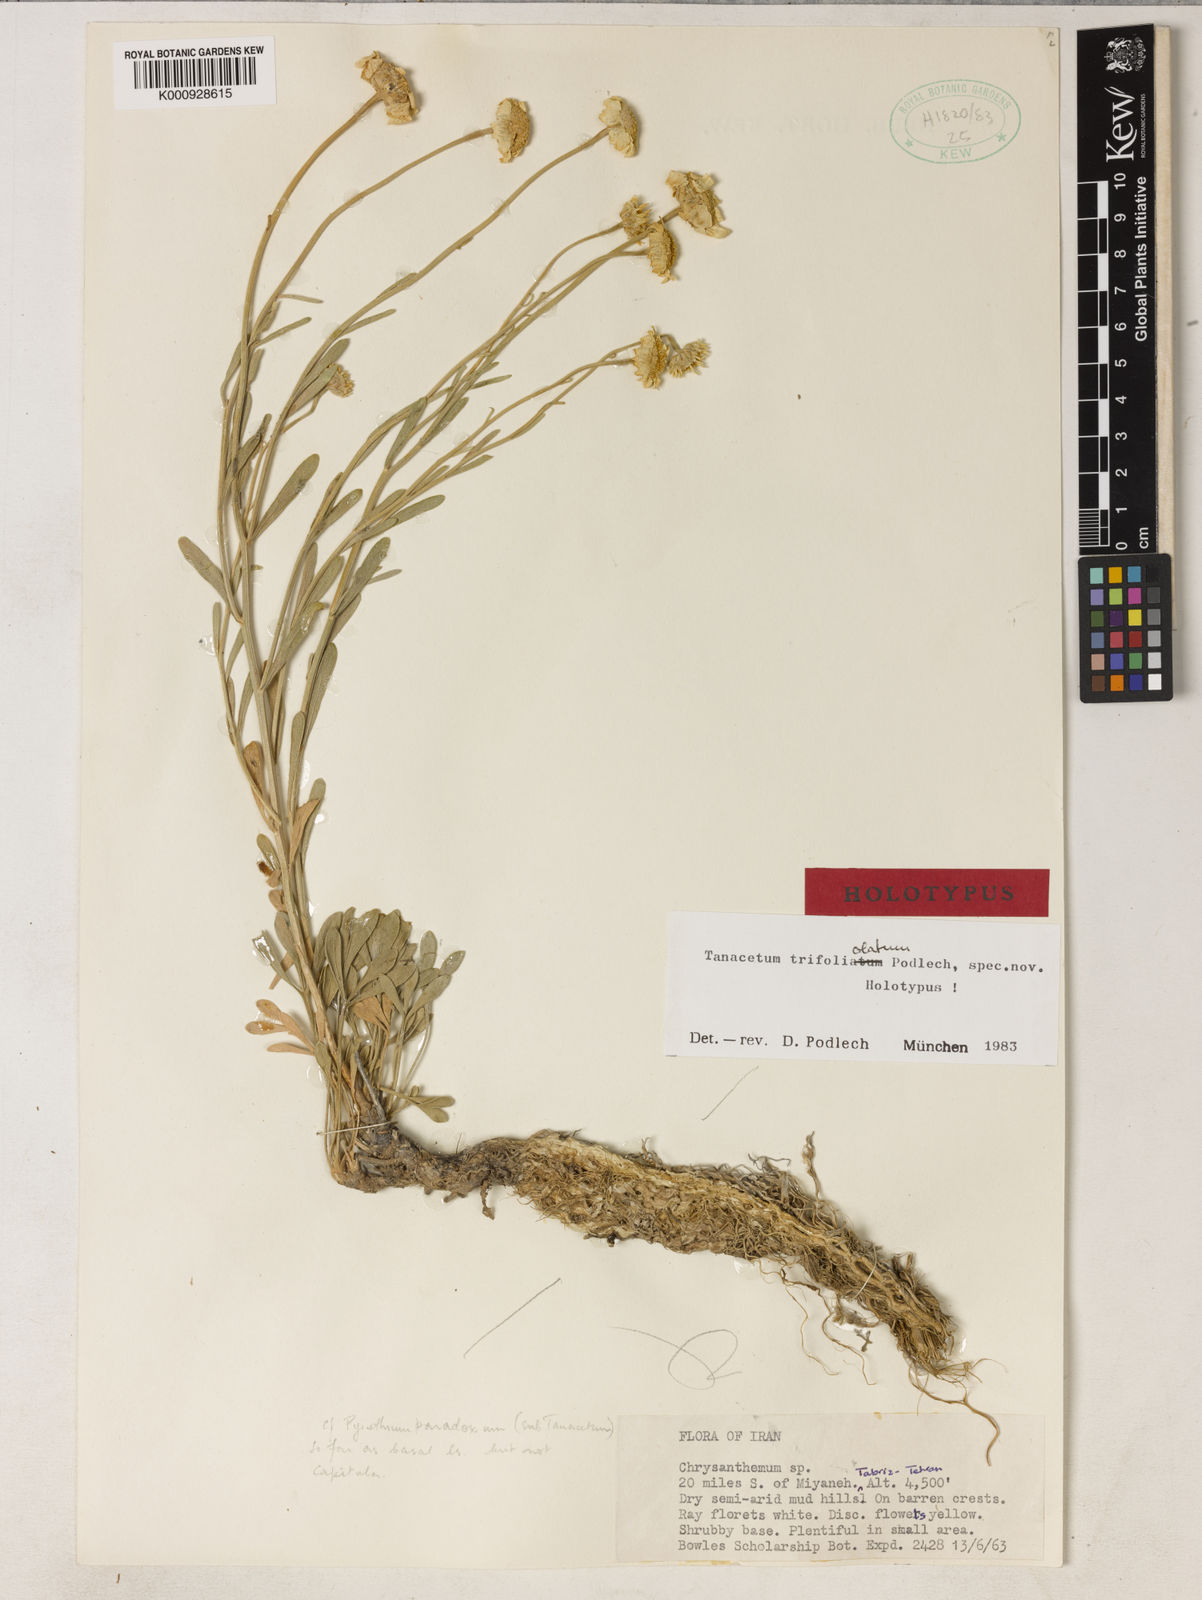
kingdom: Plantae
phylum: Tracheophyta
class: Magnoliopsida
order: Asterales
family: Asteraceae
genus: Tanacetum
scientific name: Tanacetum trifoliolatum
